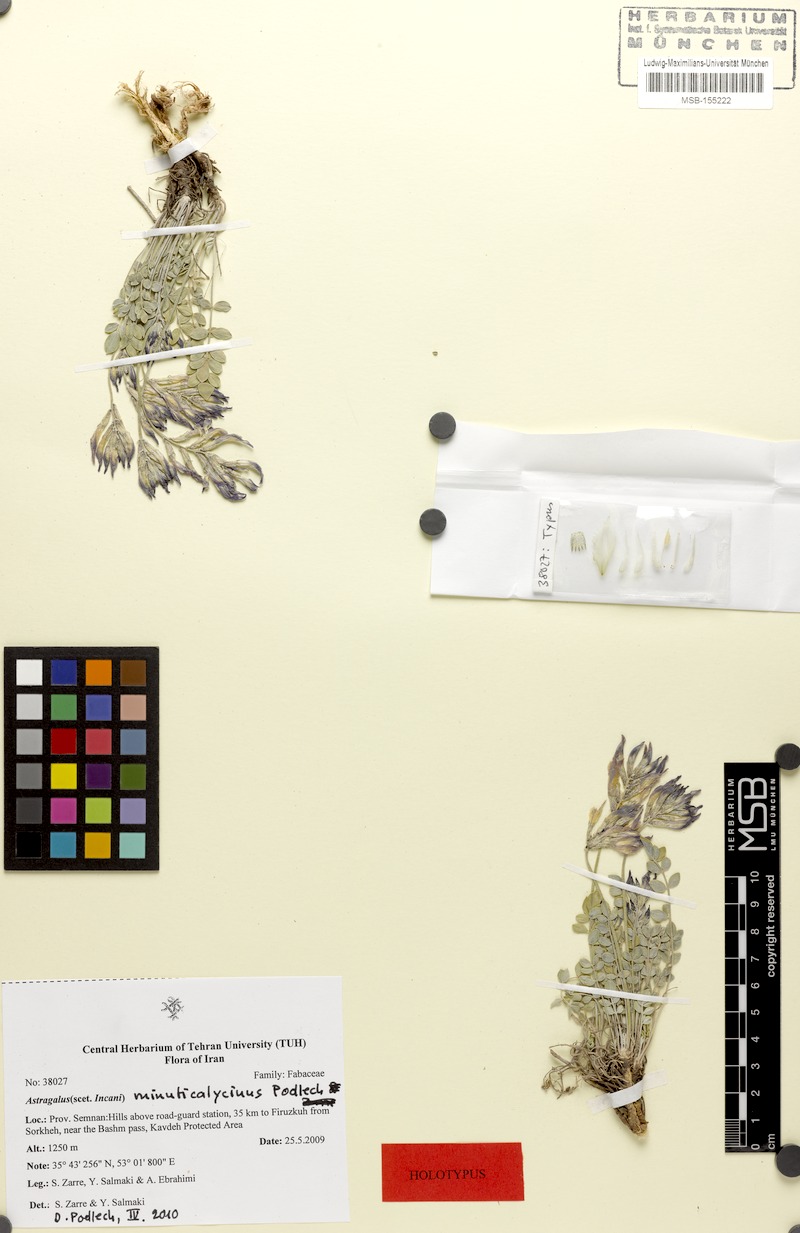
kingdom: Plantae
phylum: Tracheophyta
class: Magnoliopsida
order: Fabales
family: Fabaceae
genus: Astragalus
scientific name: Astragalus confusus
